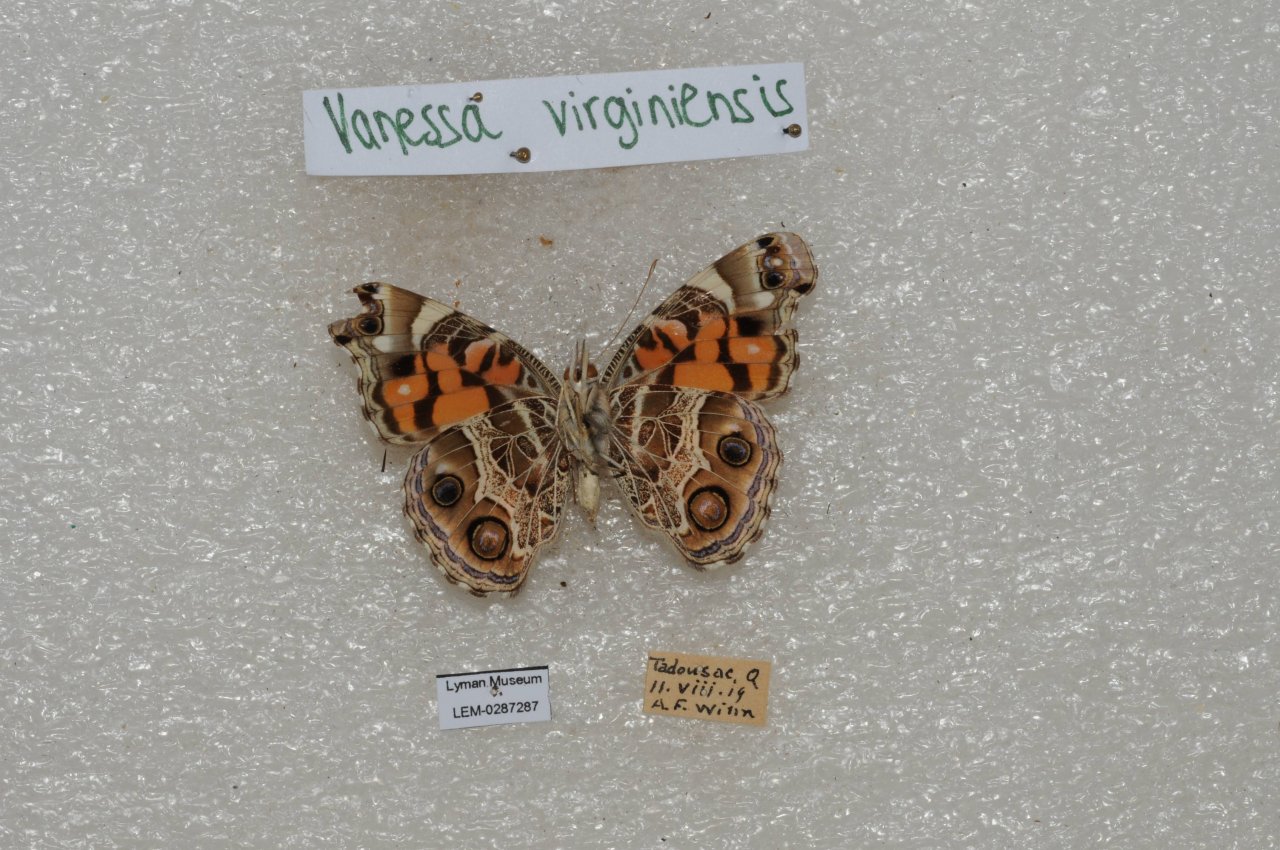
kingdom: Animalia
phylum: Arthropoda
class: Insecta
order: Lepidoptera
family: Nymphalidae
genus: Vanessa
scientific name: Vanessa virginiensis
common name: American Lady
